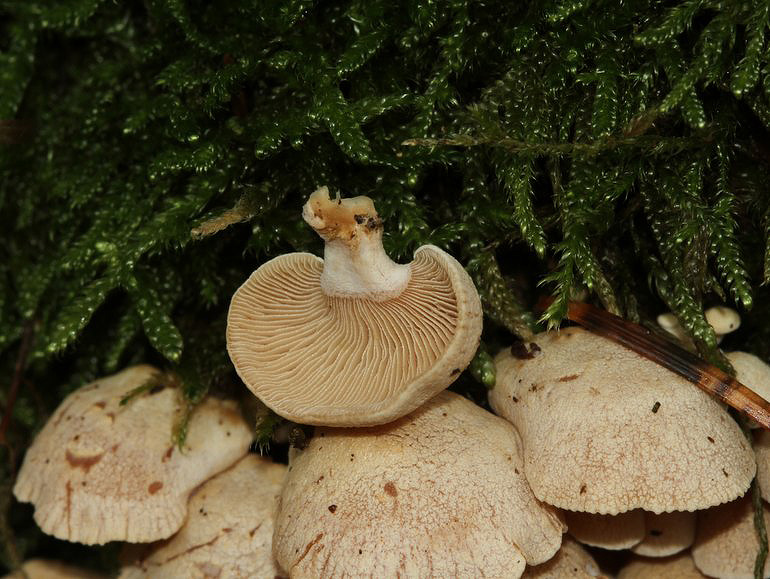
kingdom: Fungi
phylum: Basidiomycota
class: Agaricomycetes
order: Agaricales
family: Mycenaceae
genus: Panellus
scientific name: Panellus stipticus
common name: kliddet epaulethat
